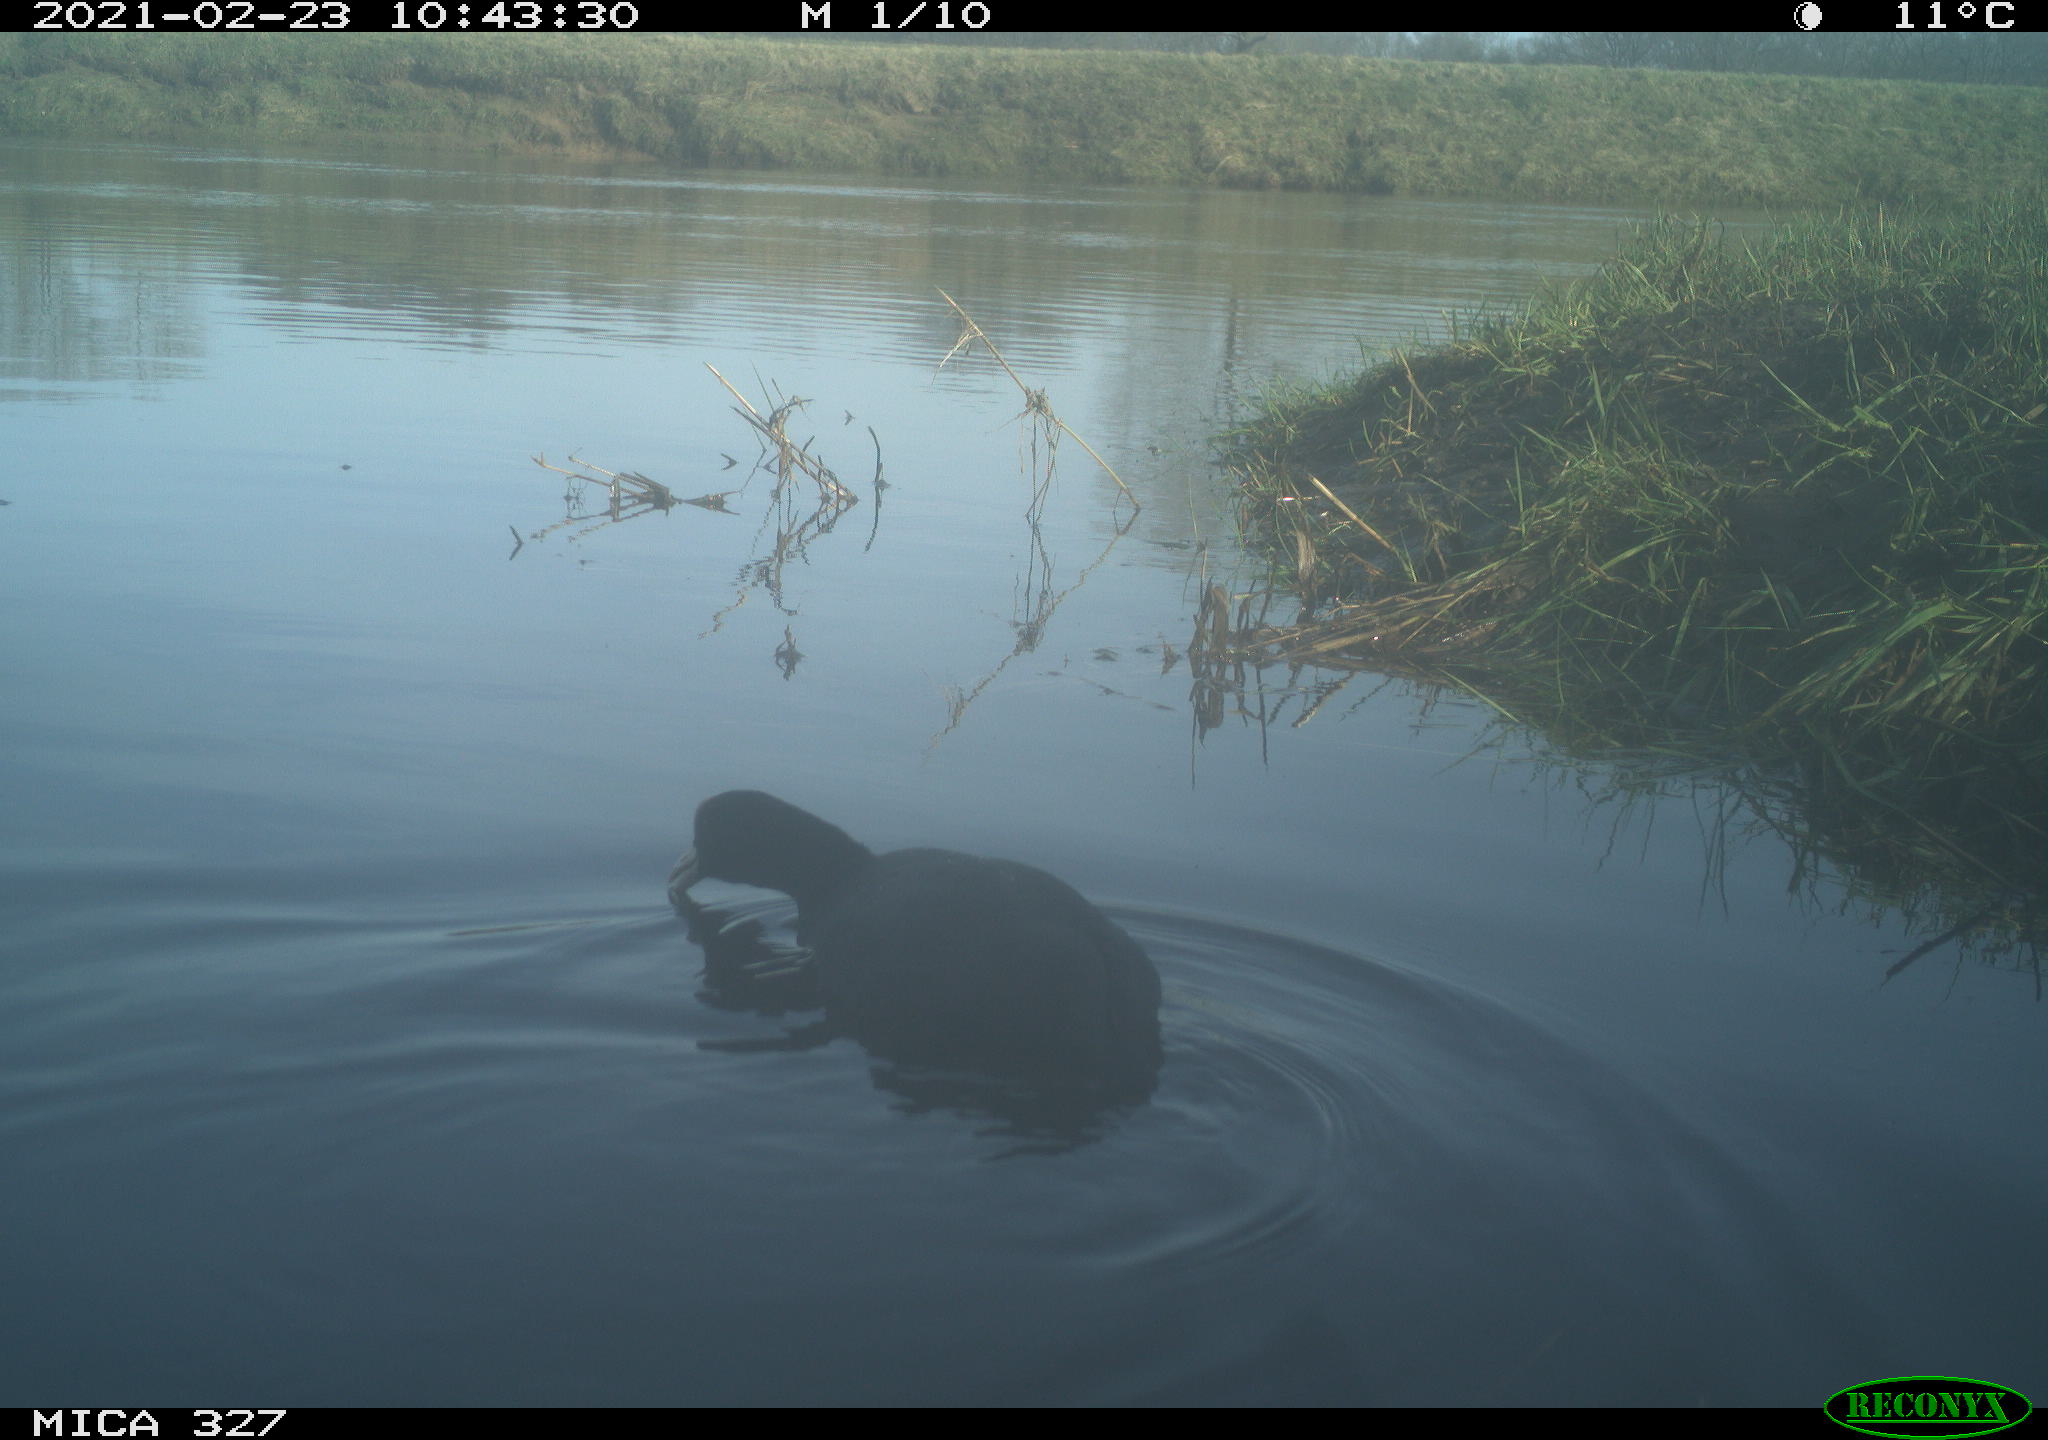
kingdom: Animalia
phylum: Chordata
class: Aves
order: Gruiformes
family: Rallidae
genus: Fulica
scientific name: Fulica atra
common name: Eurasian coot
